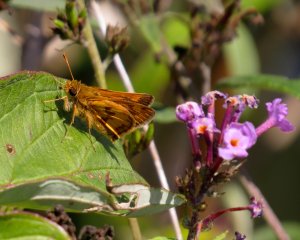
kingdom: Animalia
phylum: Arthropoda
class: Insecta
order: Lepidoptera
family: Hesperiidae
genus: Polites
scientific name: Polites coras
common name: Peck's Skipper
